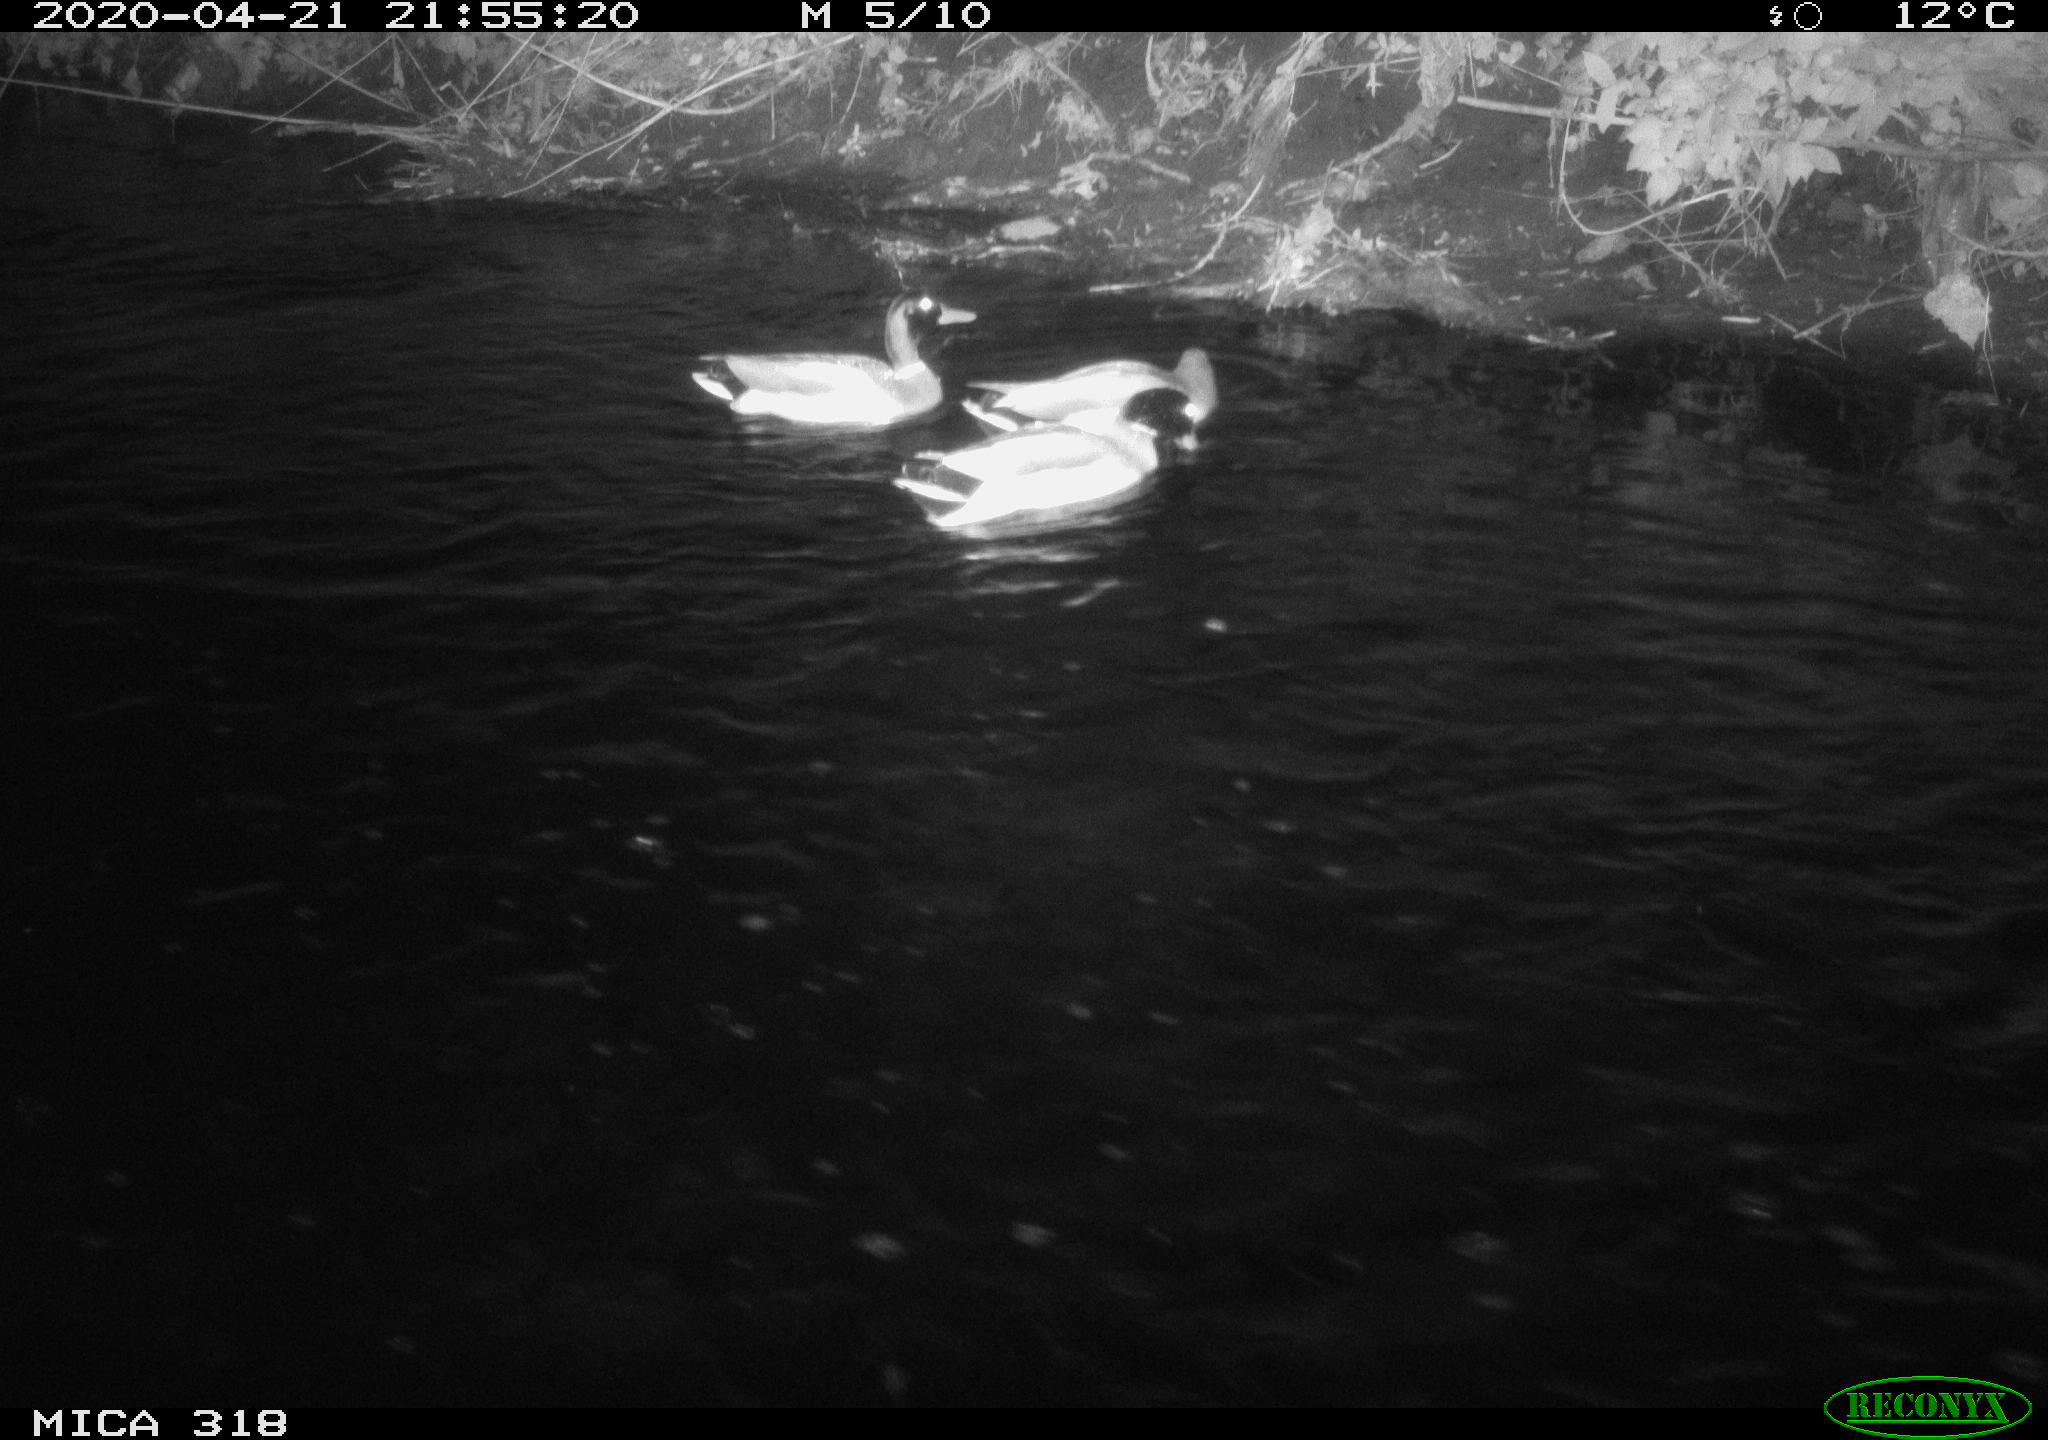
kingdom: Animalia
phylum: Chordata
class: Aves
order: Anseriformes
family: Anatidae
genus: Anas
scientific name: Anas platyrhynchos
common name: Mallard
